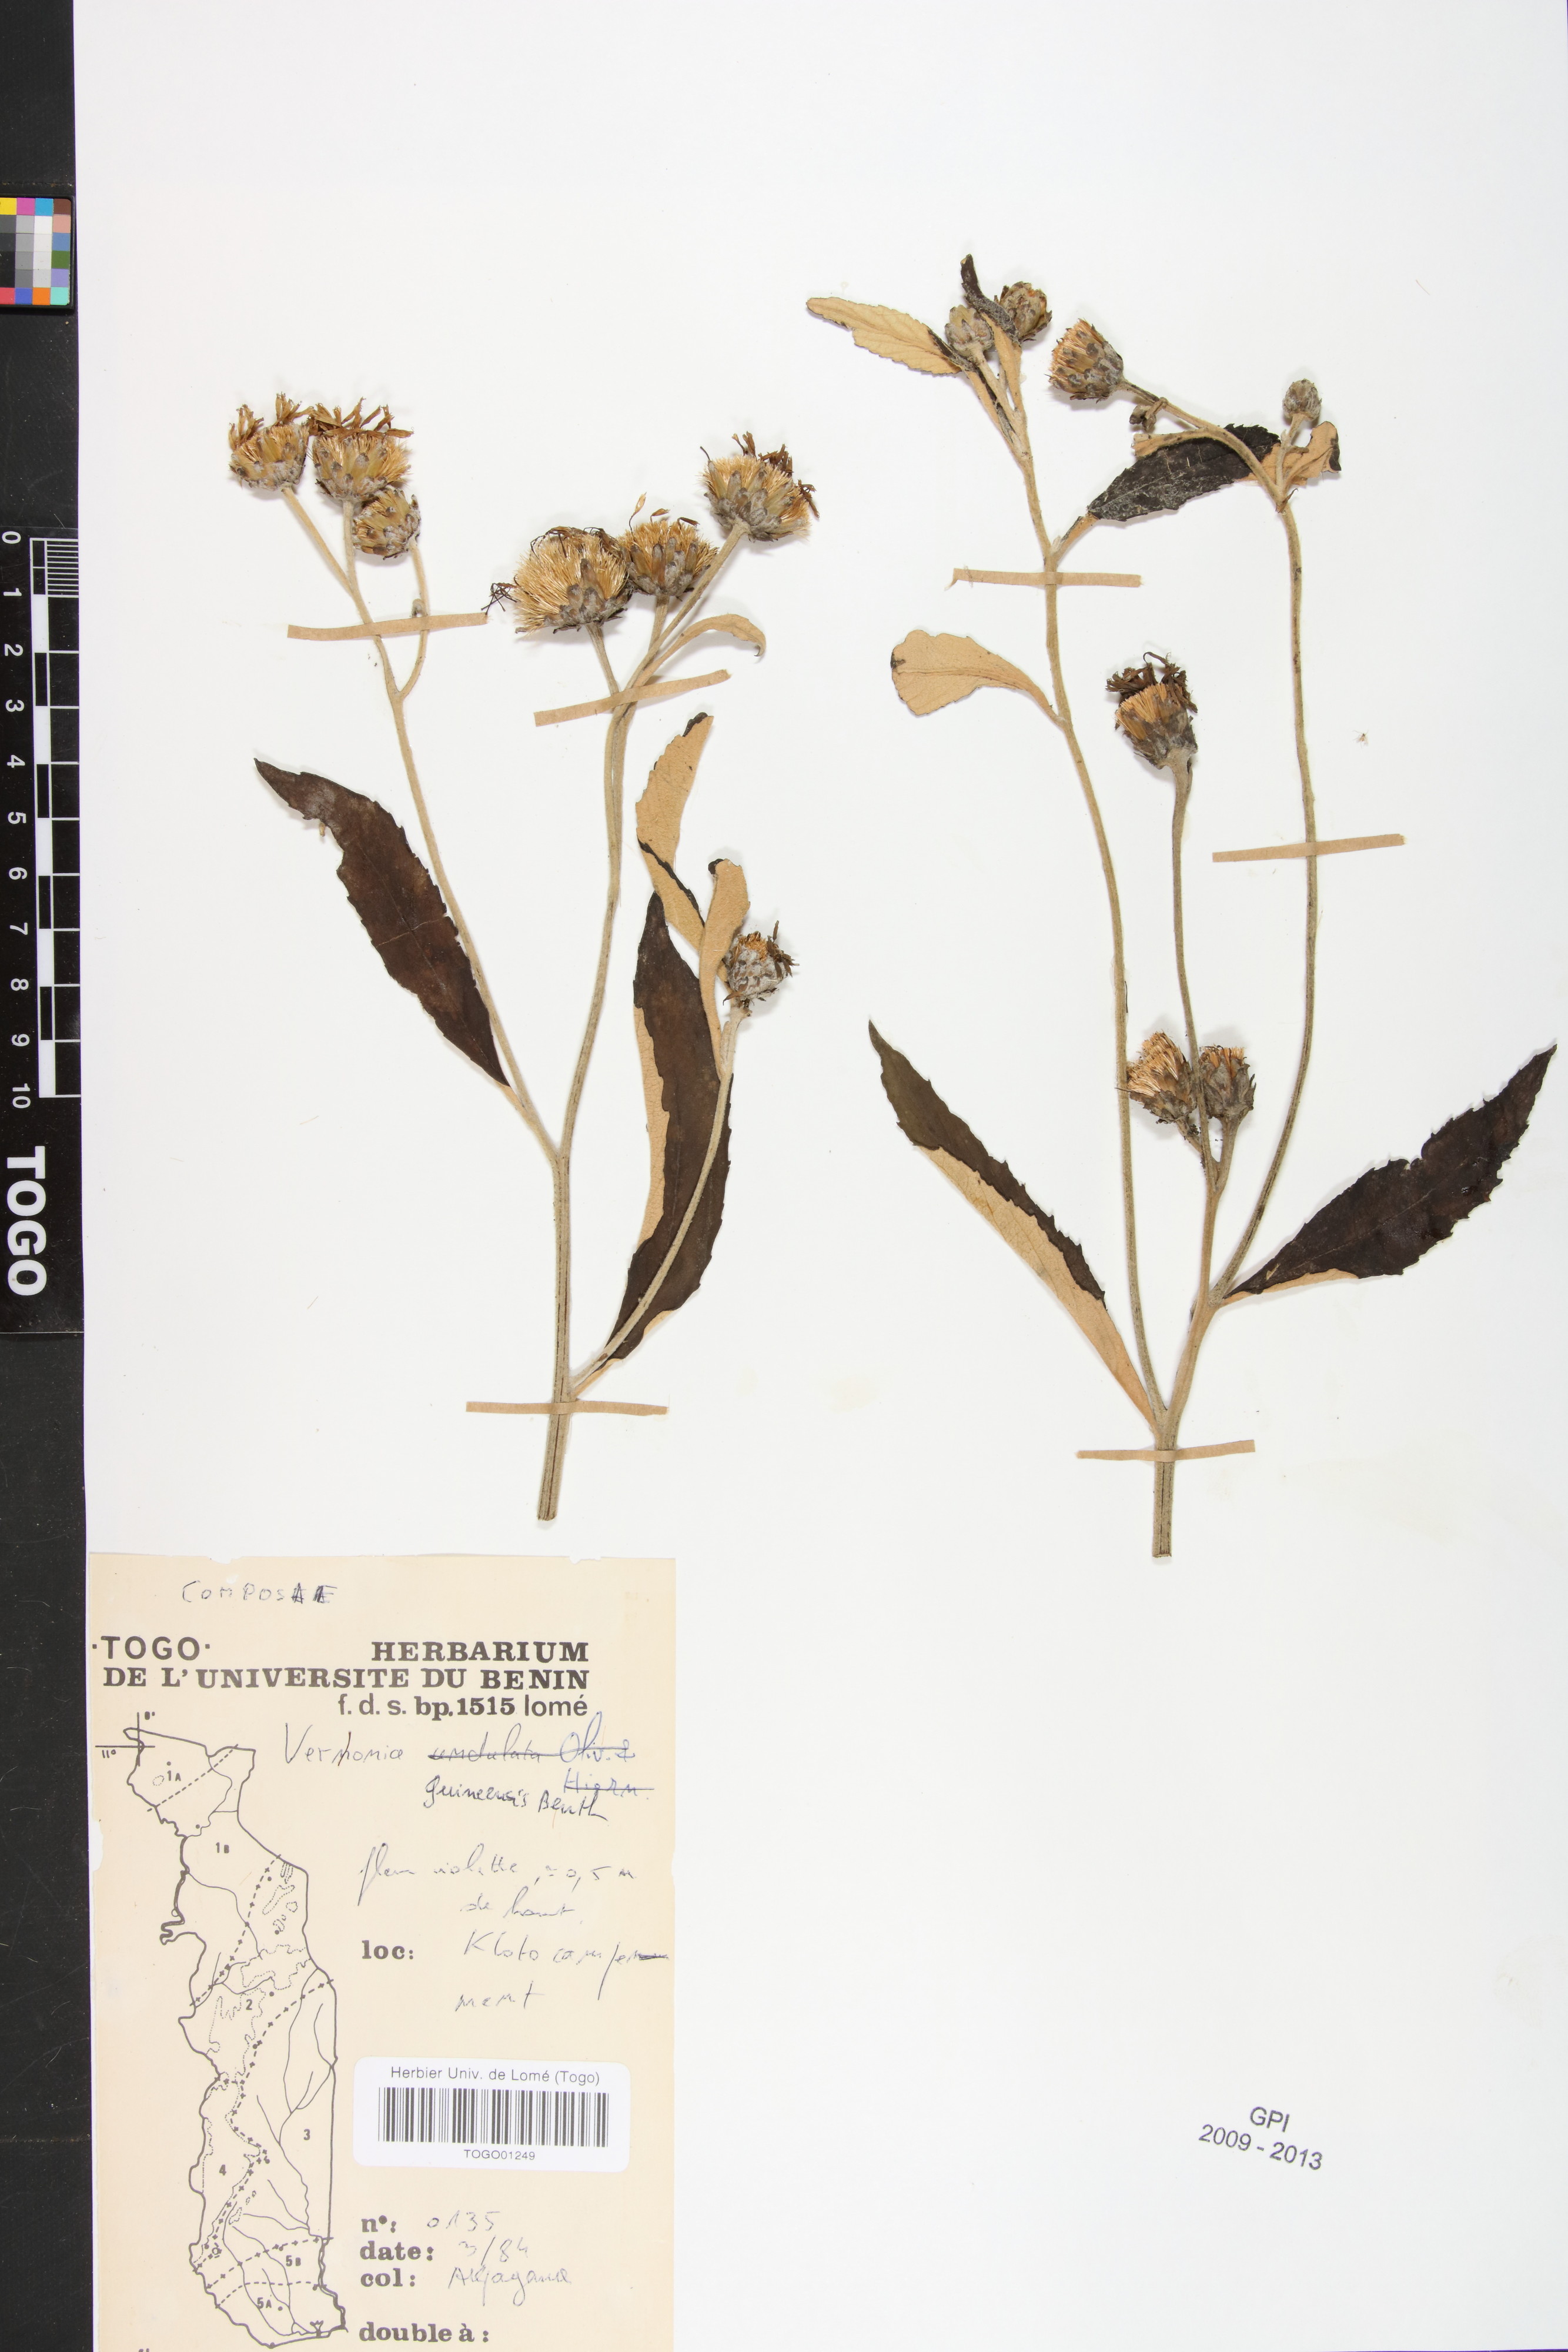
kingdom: Plantae
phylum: Tracheophyta
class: Magnoliopsida
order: Asterales
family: Asteraceae
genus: Baccharoides
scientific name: Baccharoides guineensis
